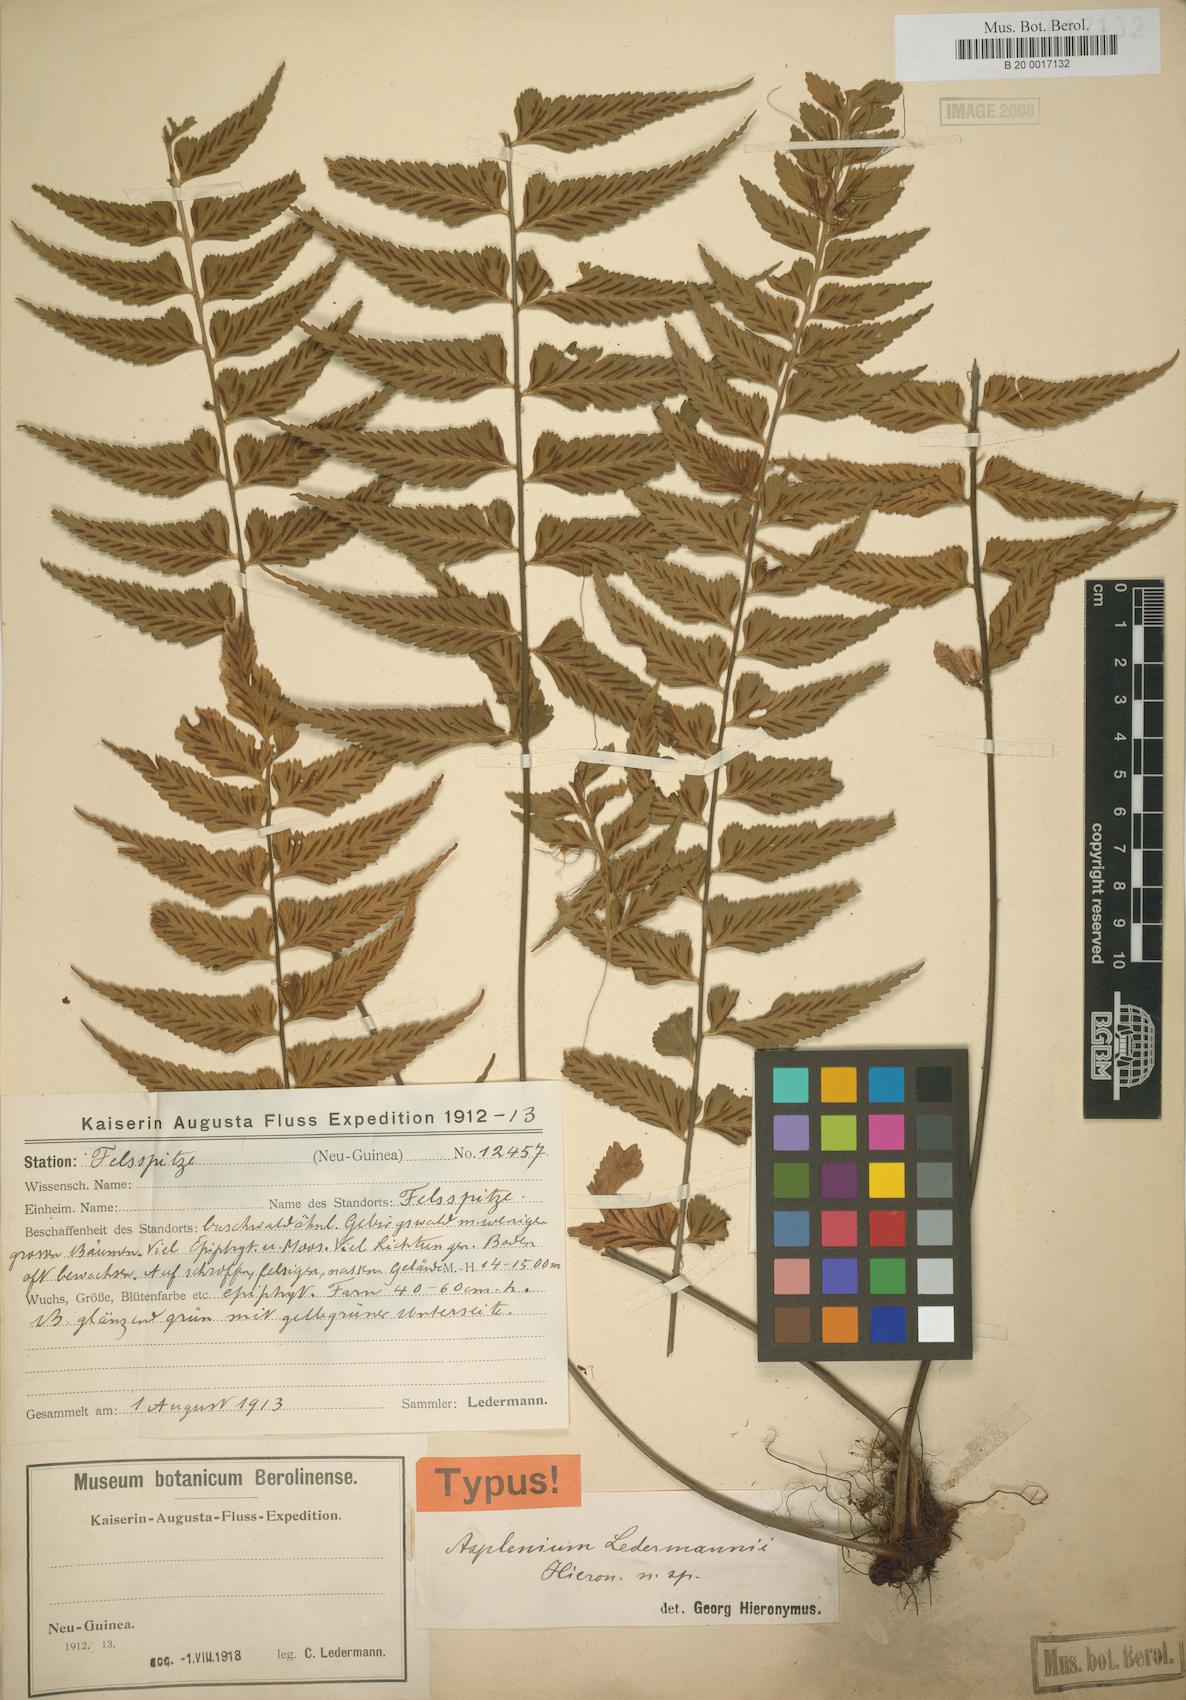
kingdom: Plantae
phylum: Tracheophyta
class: Polypodiopsida
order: Polypodiales
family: Aspleniaceae
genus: Asplenium
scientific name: Asplenium lobulatum
